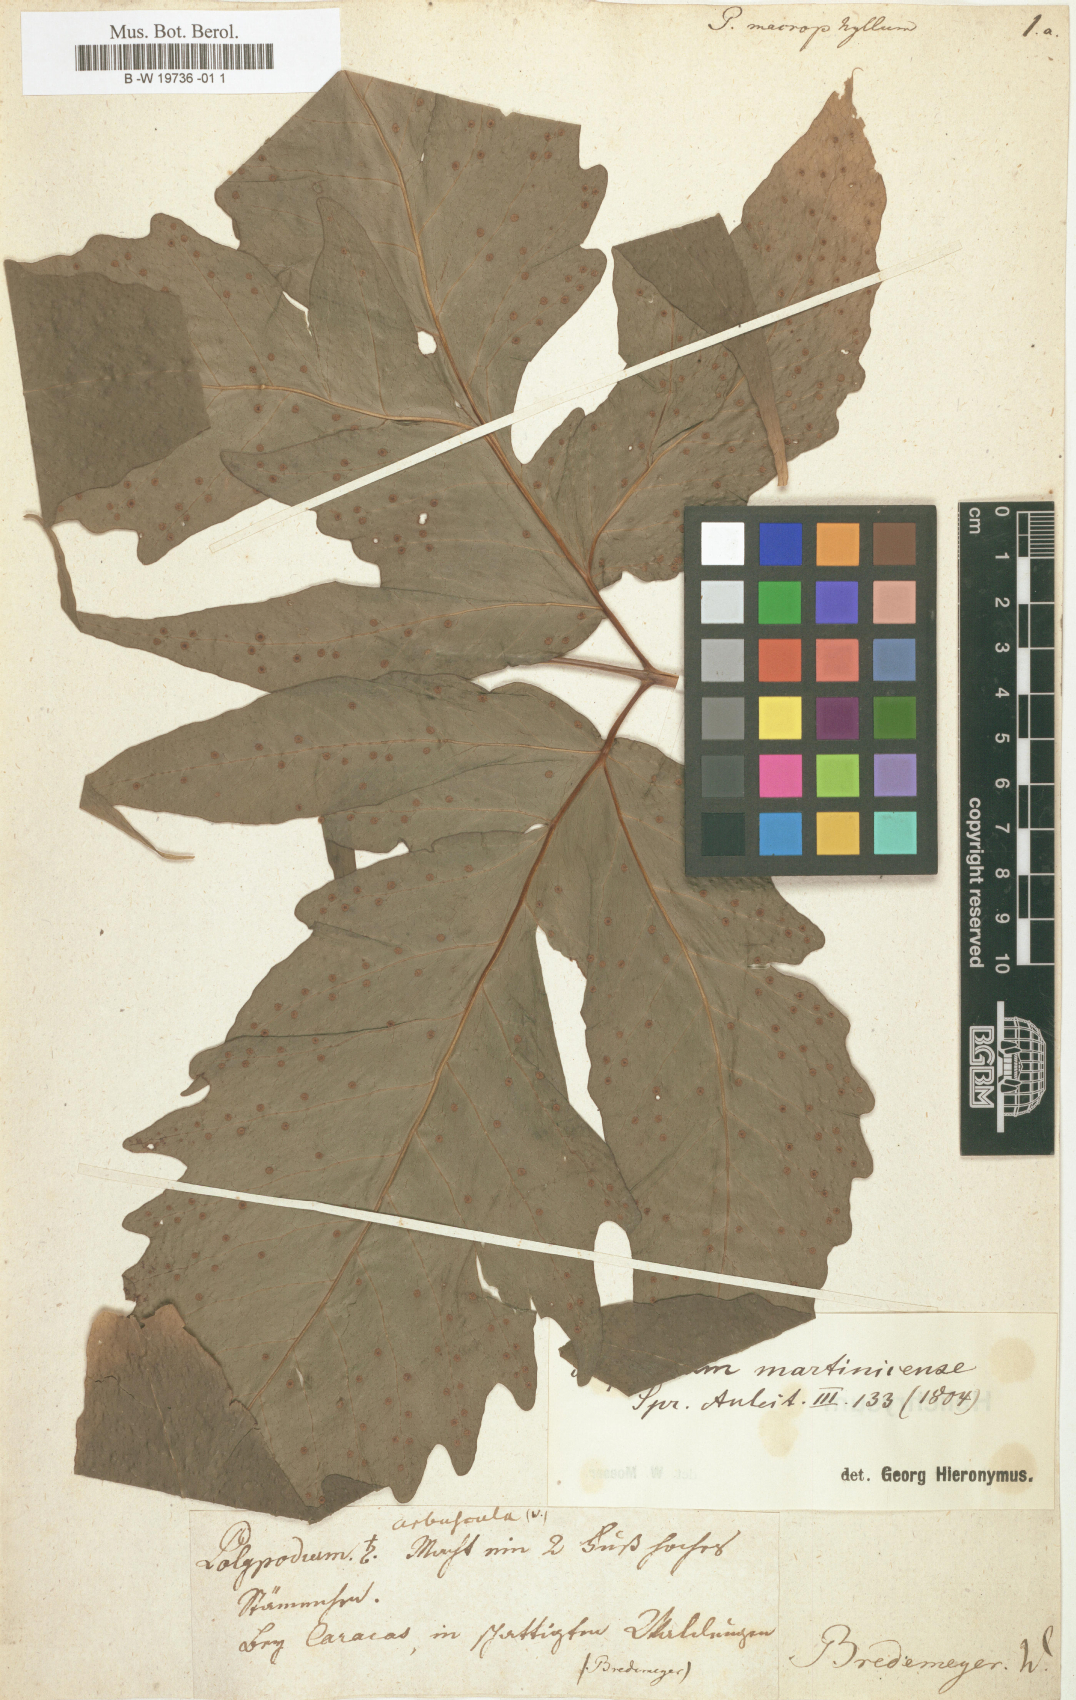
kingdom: Plantae
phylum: Tracheophyta
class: Polypodiopsida
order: Polypodiales
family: Tectariaceae
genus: Tectaria
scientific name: Tectaria incisa
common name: Incised halberd fern
